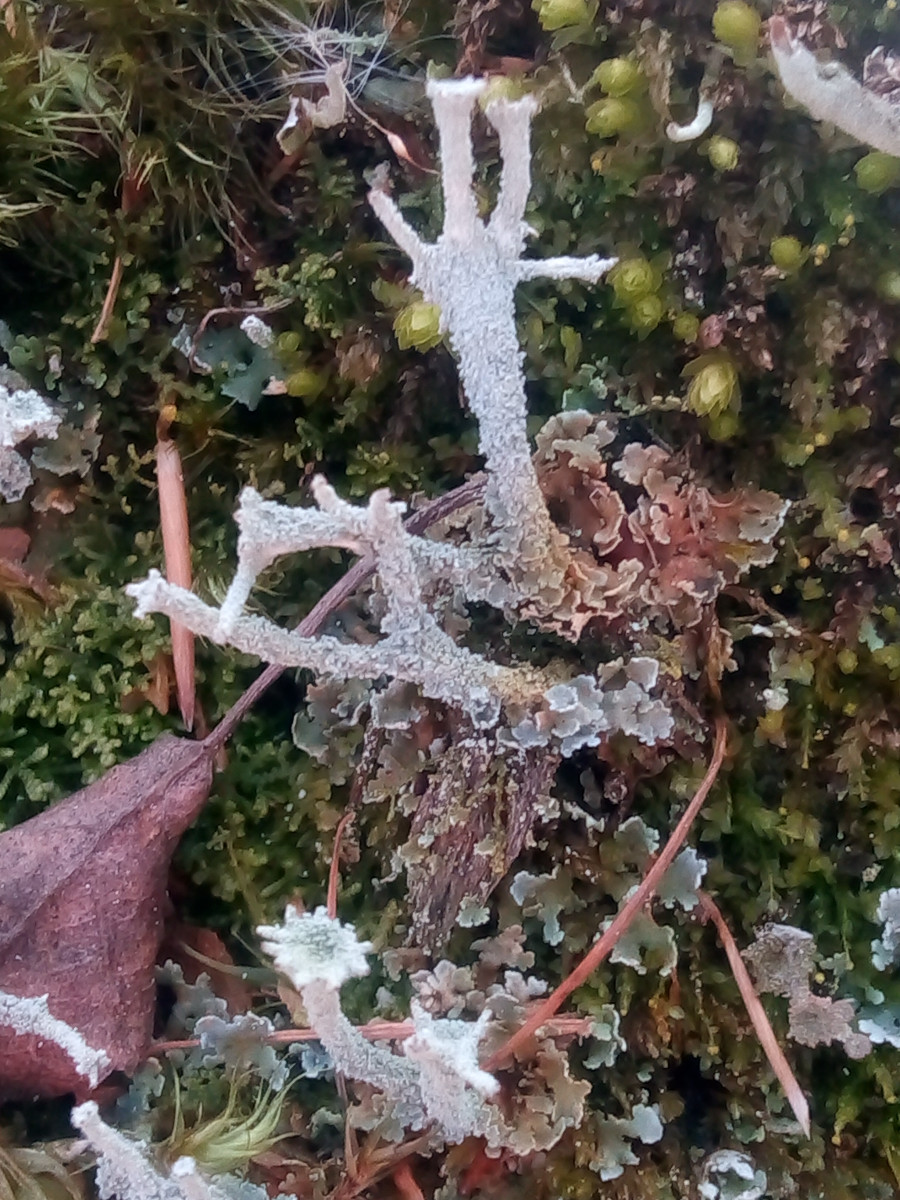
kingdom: Fungi
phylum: Ascomycota
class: Lecanoromycetes
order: Lecanorales
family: Cladoniaceae
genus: Cladonia
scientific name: Cladonia polydactyla
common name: vifte-bægerlav
